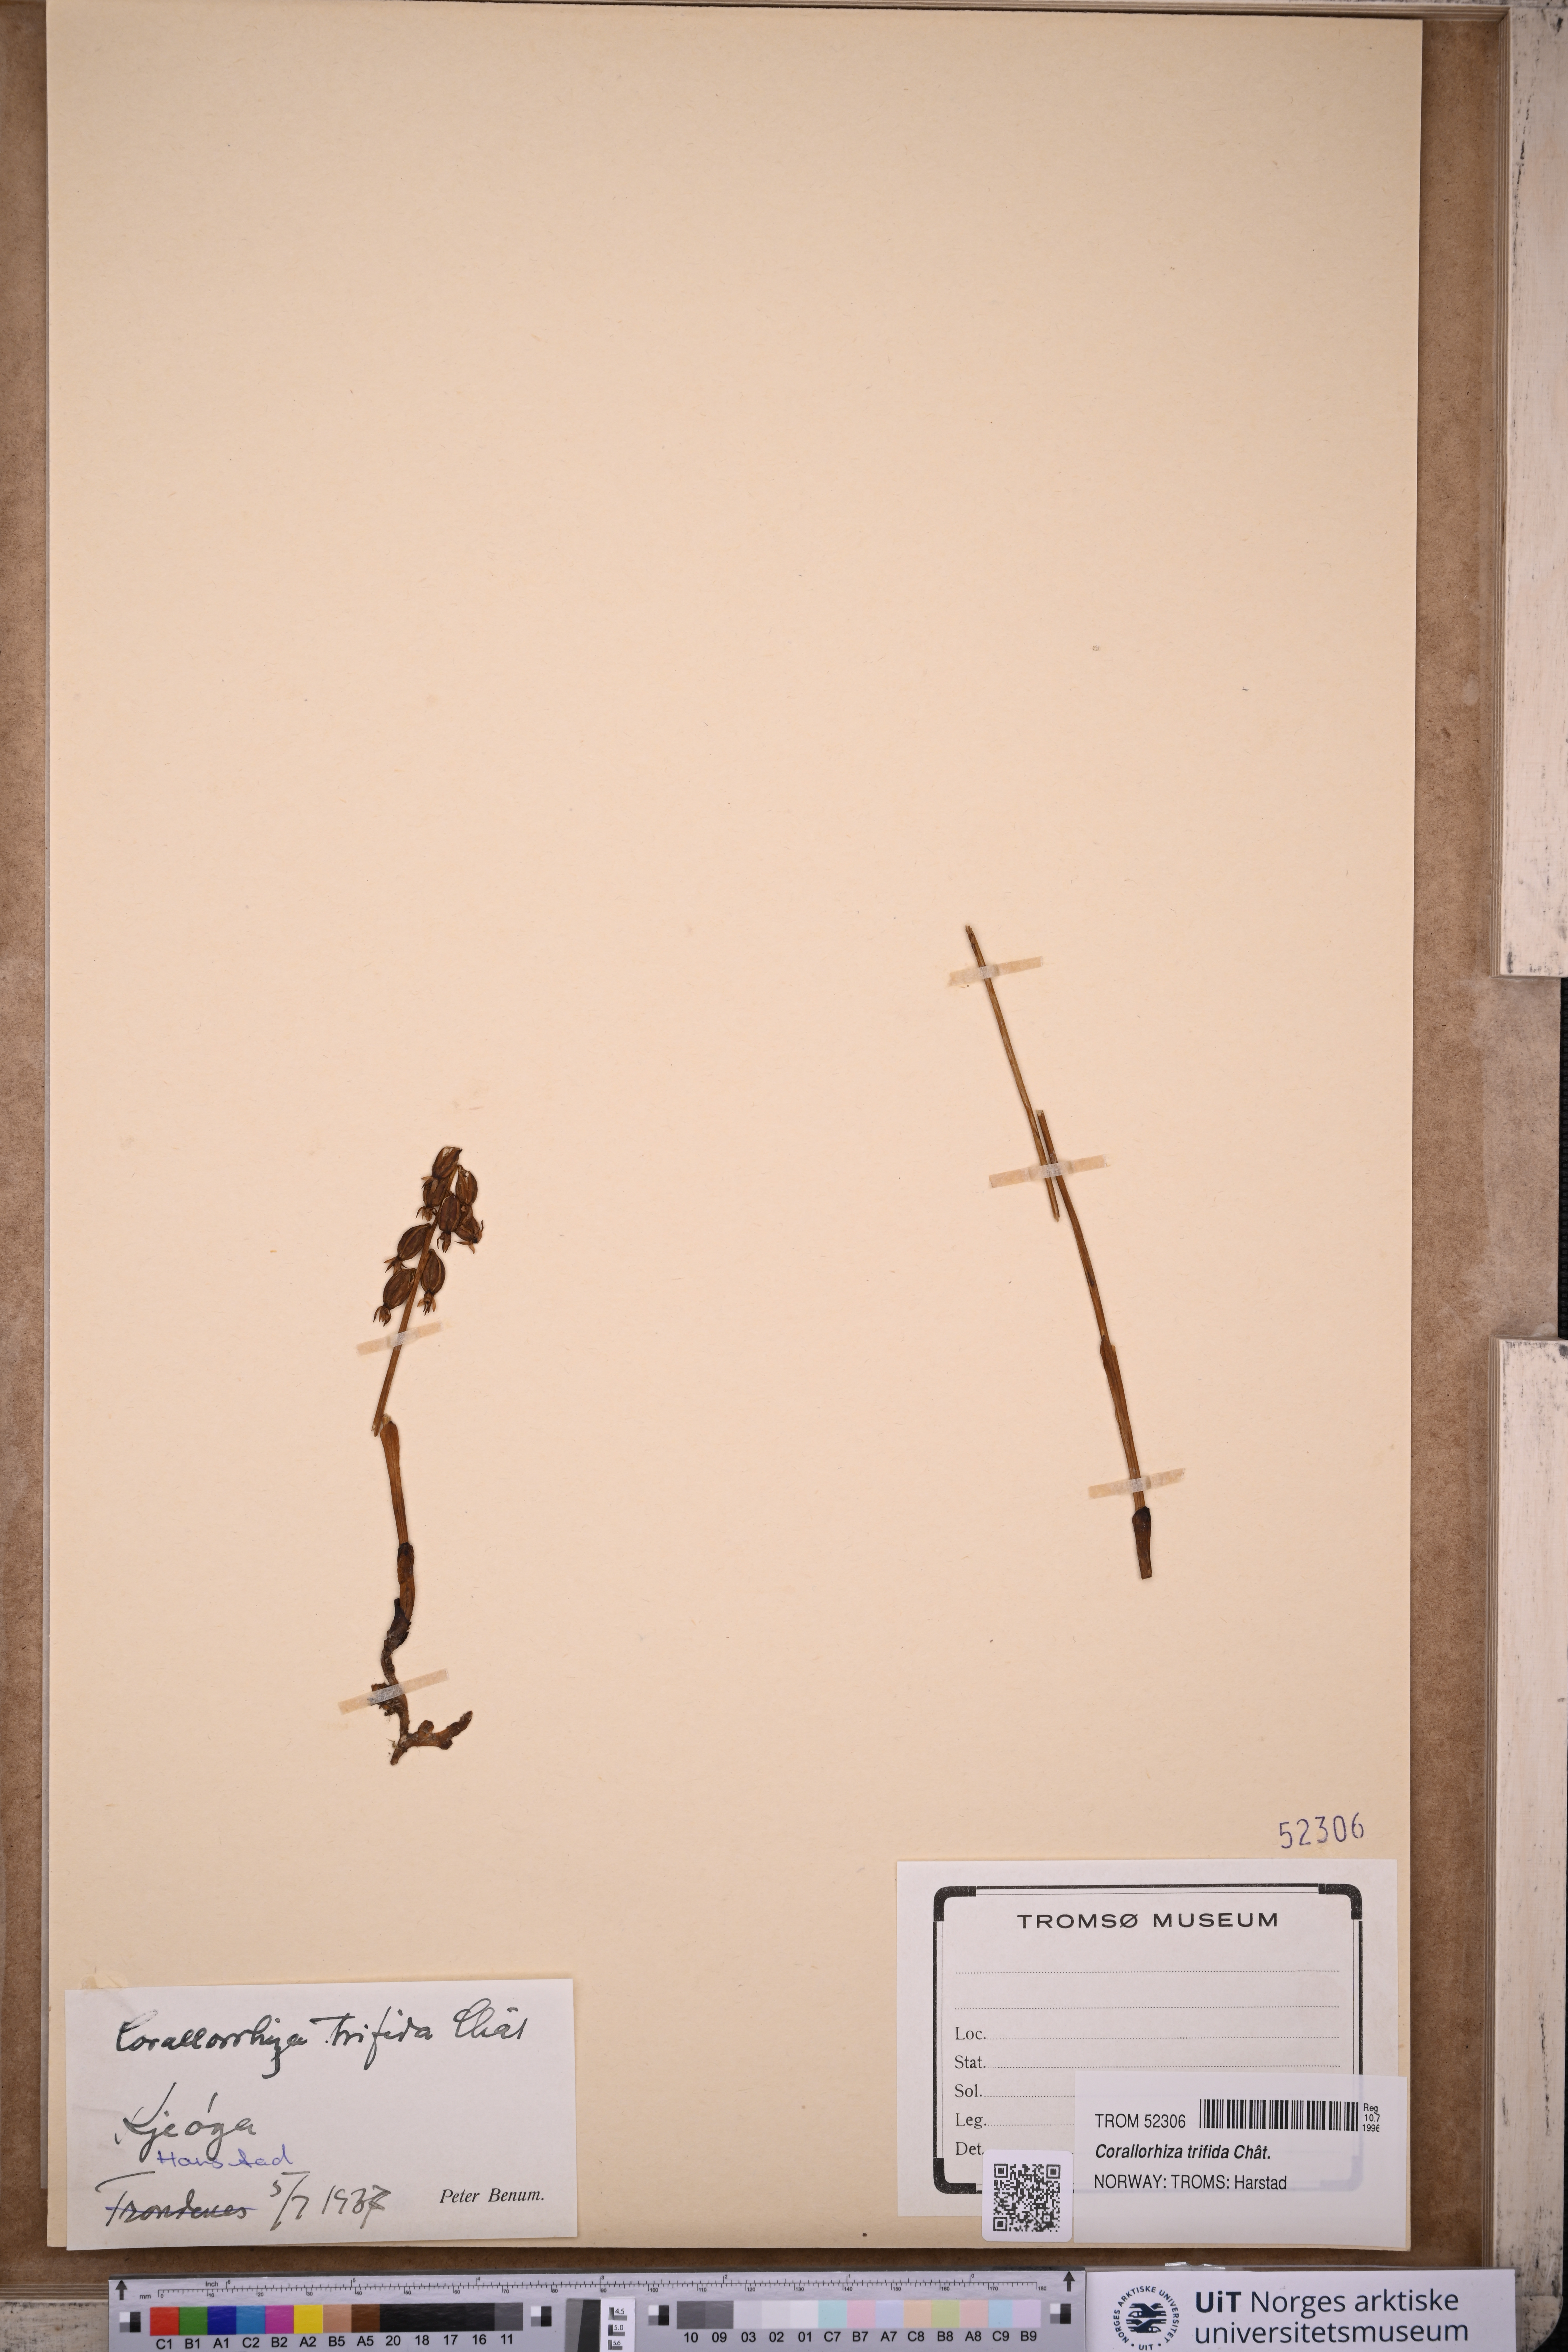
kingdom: Plantae
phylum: Tracheophyta
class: Liliopsida
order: Asparagales
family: Orchidaceae
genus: Corallorhiza
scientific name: Corallorhiza trifida
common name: Yellow coralroot
